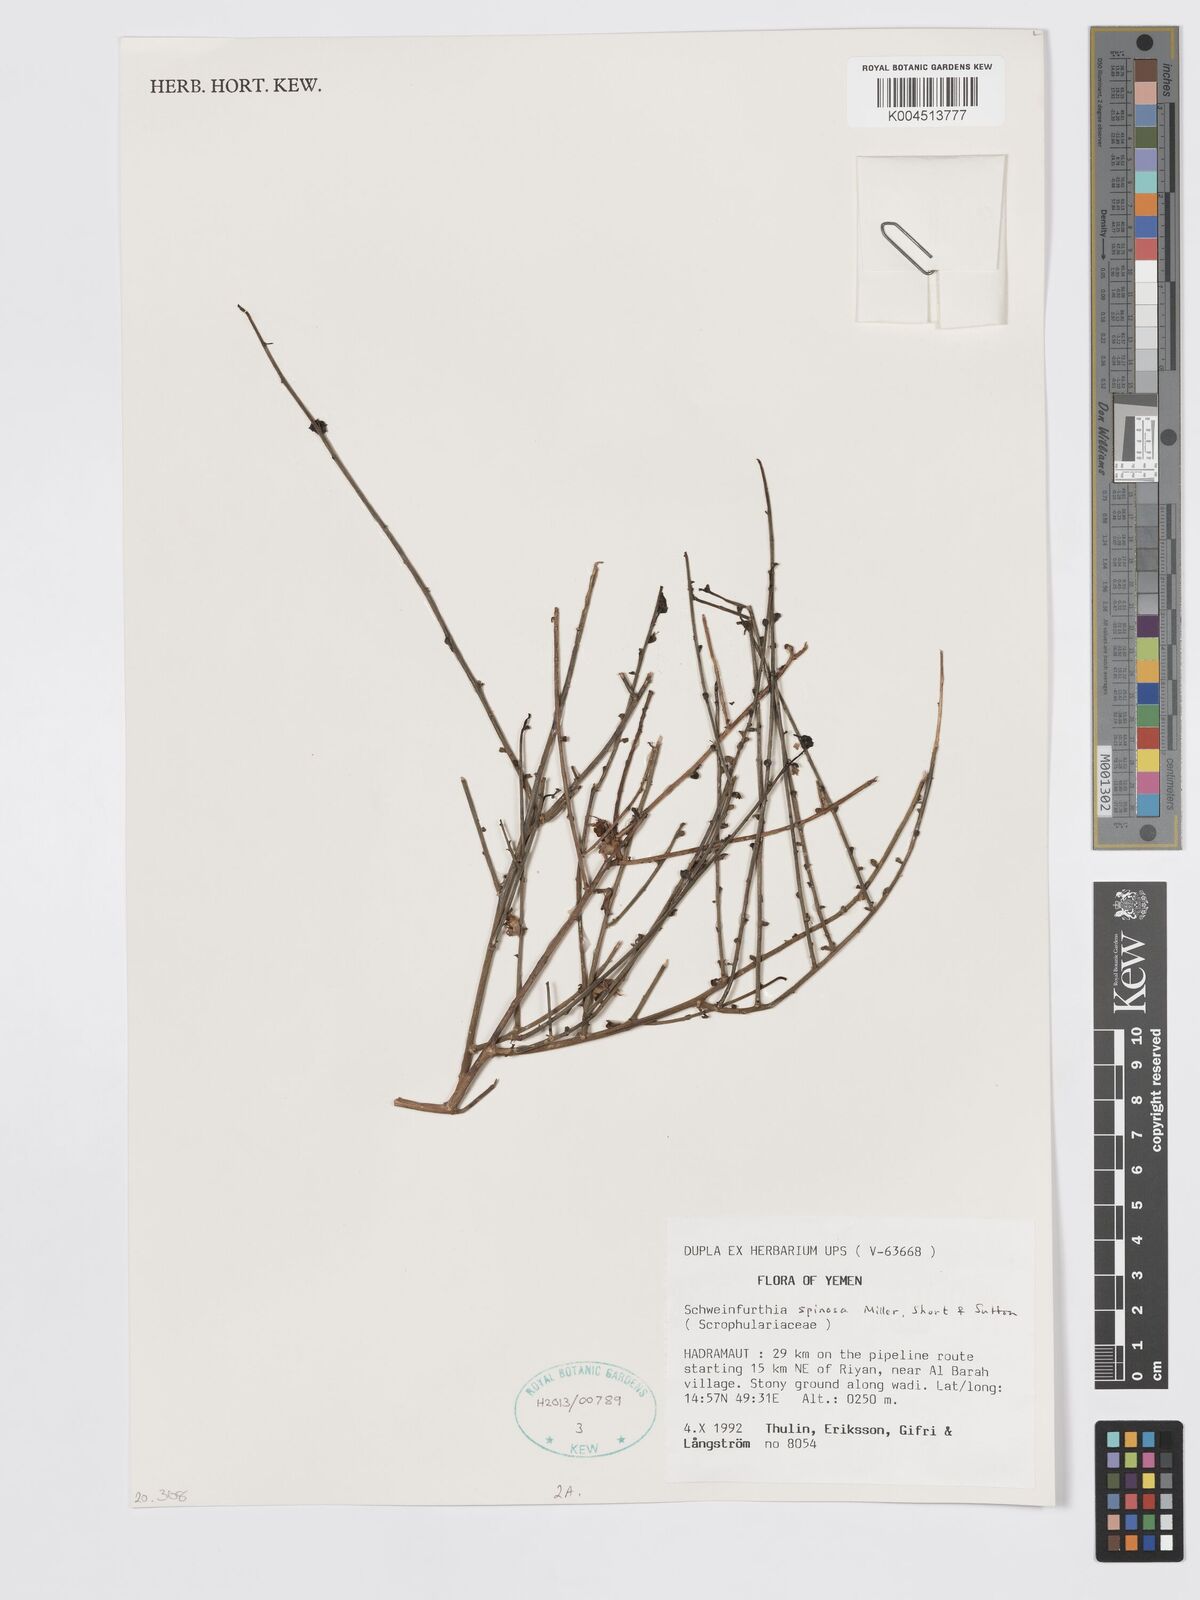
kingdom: Plantae
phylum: Tracheophyta
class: Magnoliopsida
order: Lamiales
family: Plantaginaceae
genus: Schweinfurthia
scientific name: Schweinfurthia spinosa
